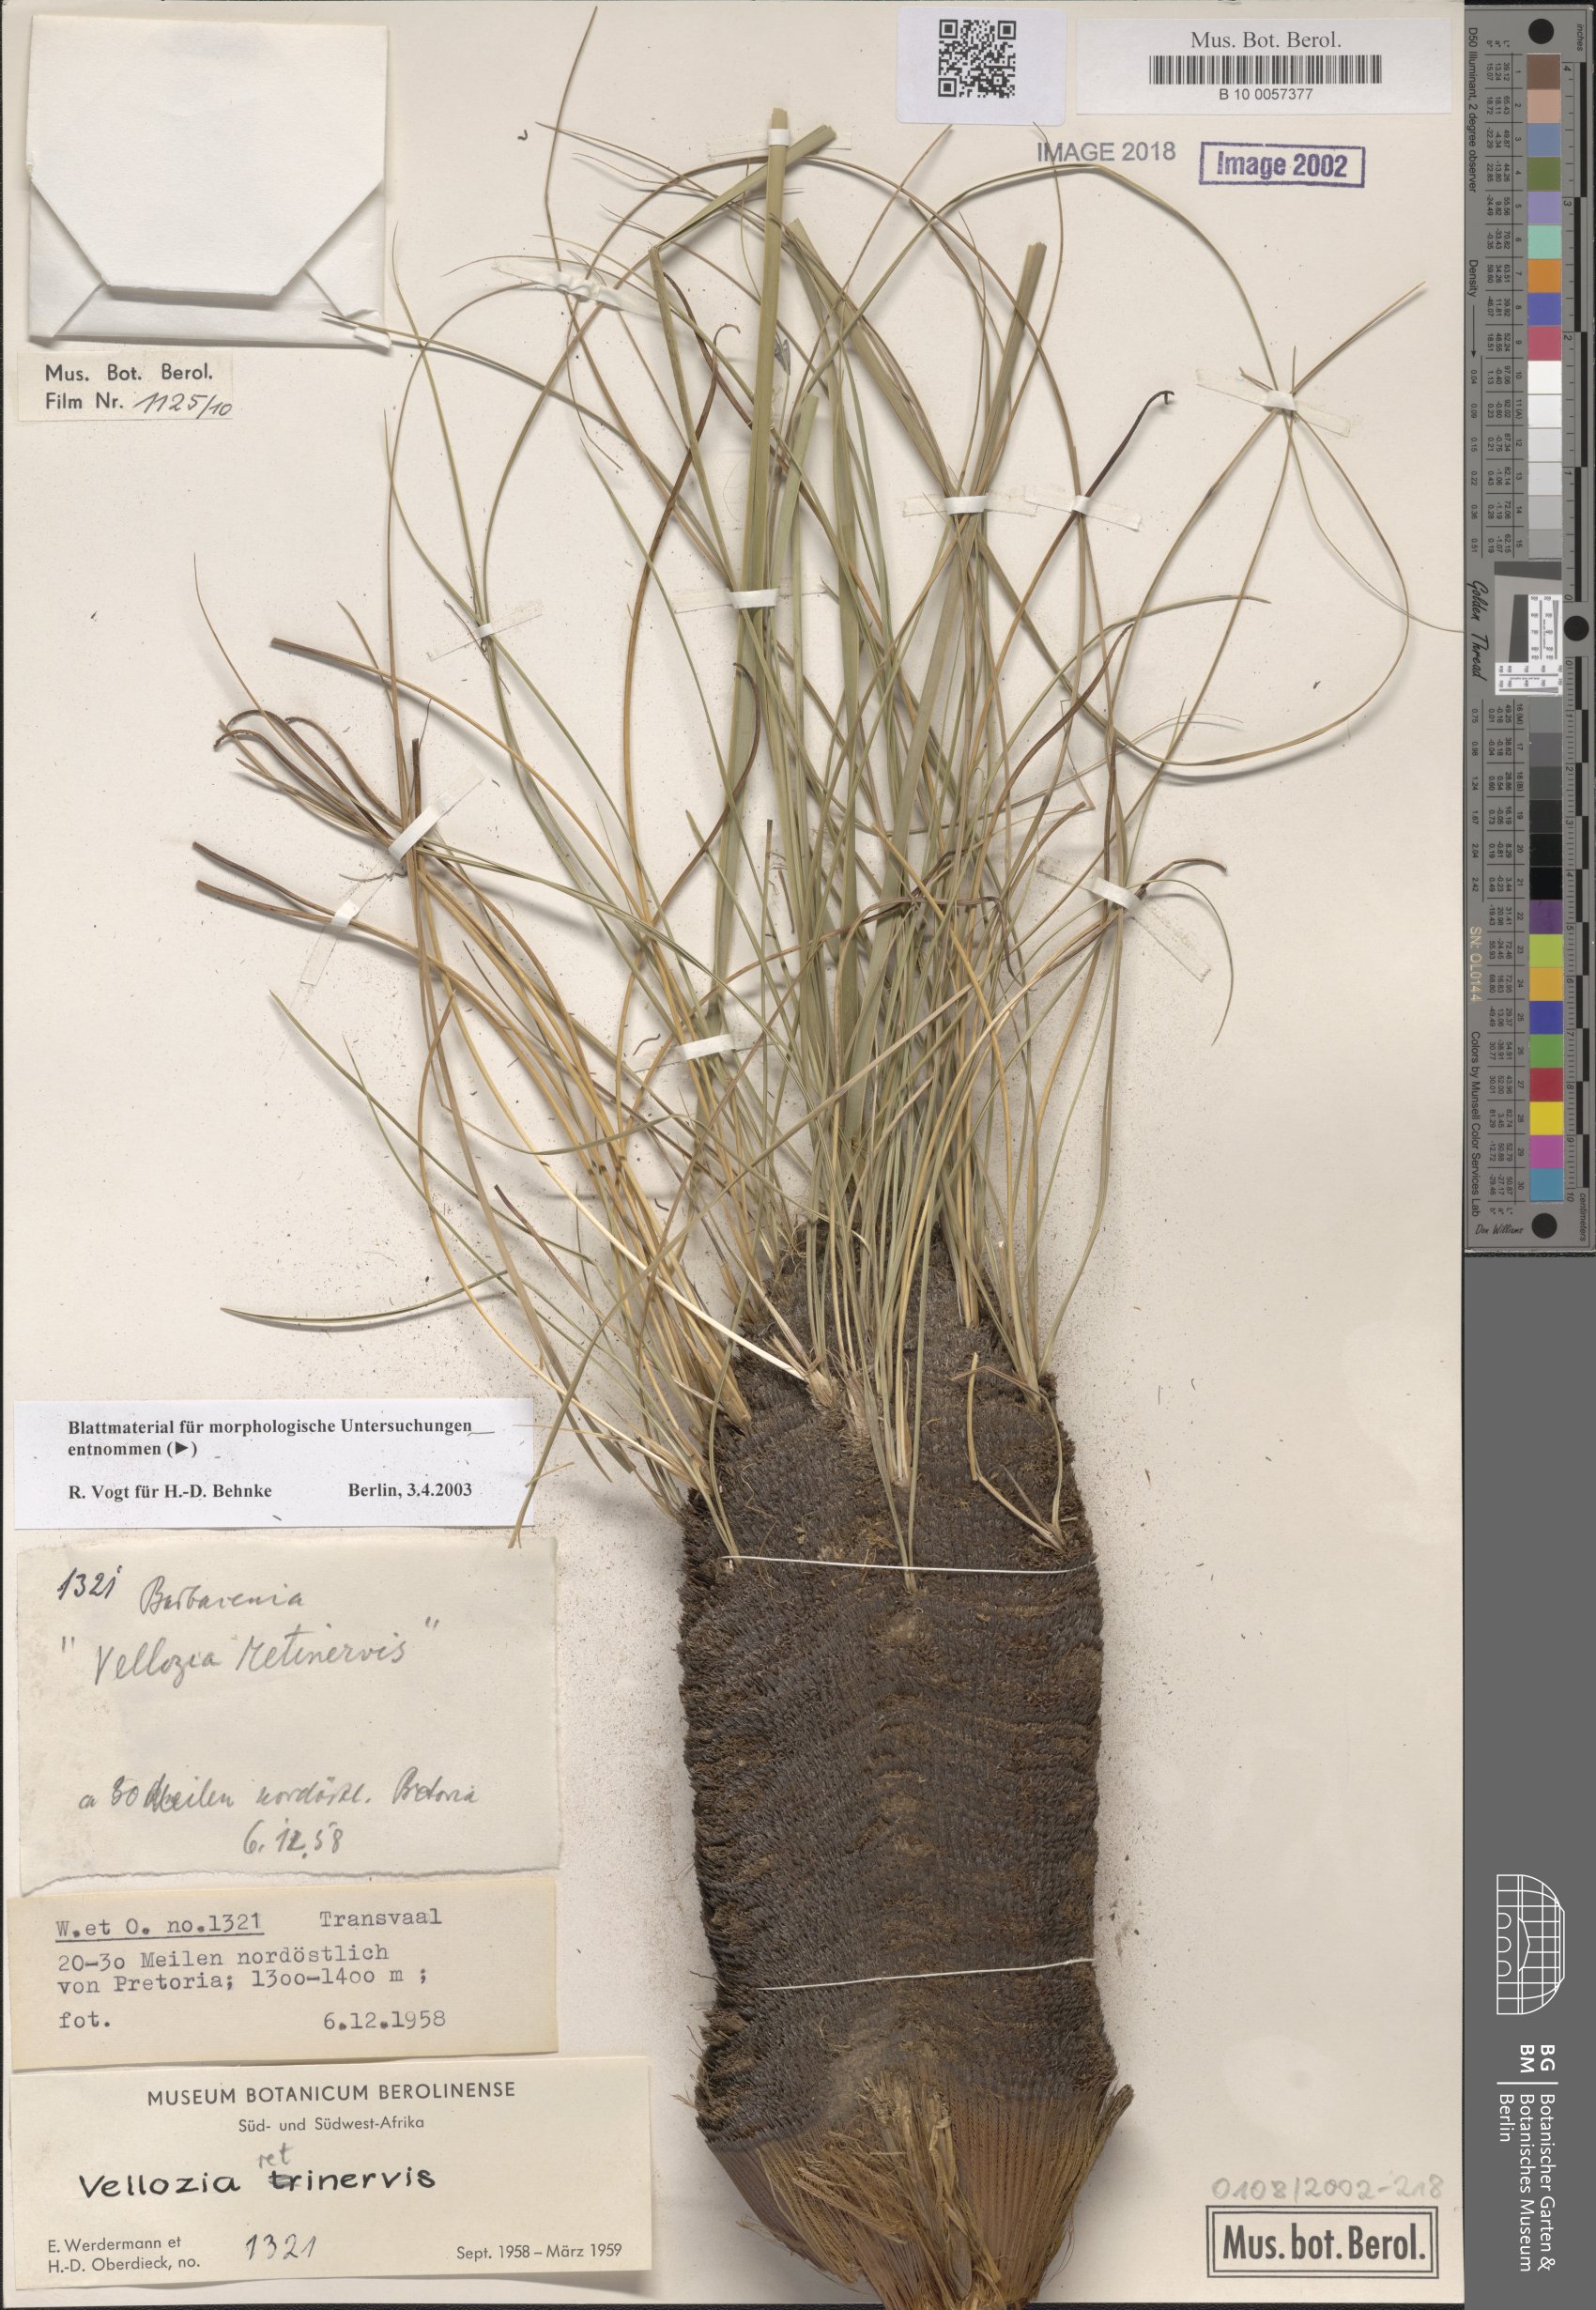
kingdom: Plantae
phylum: Tracheophyta
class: Liliopsida
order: Pandanales
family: Velloziaceae
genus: Xerophyta
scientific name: Xerophyta retinervis
